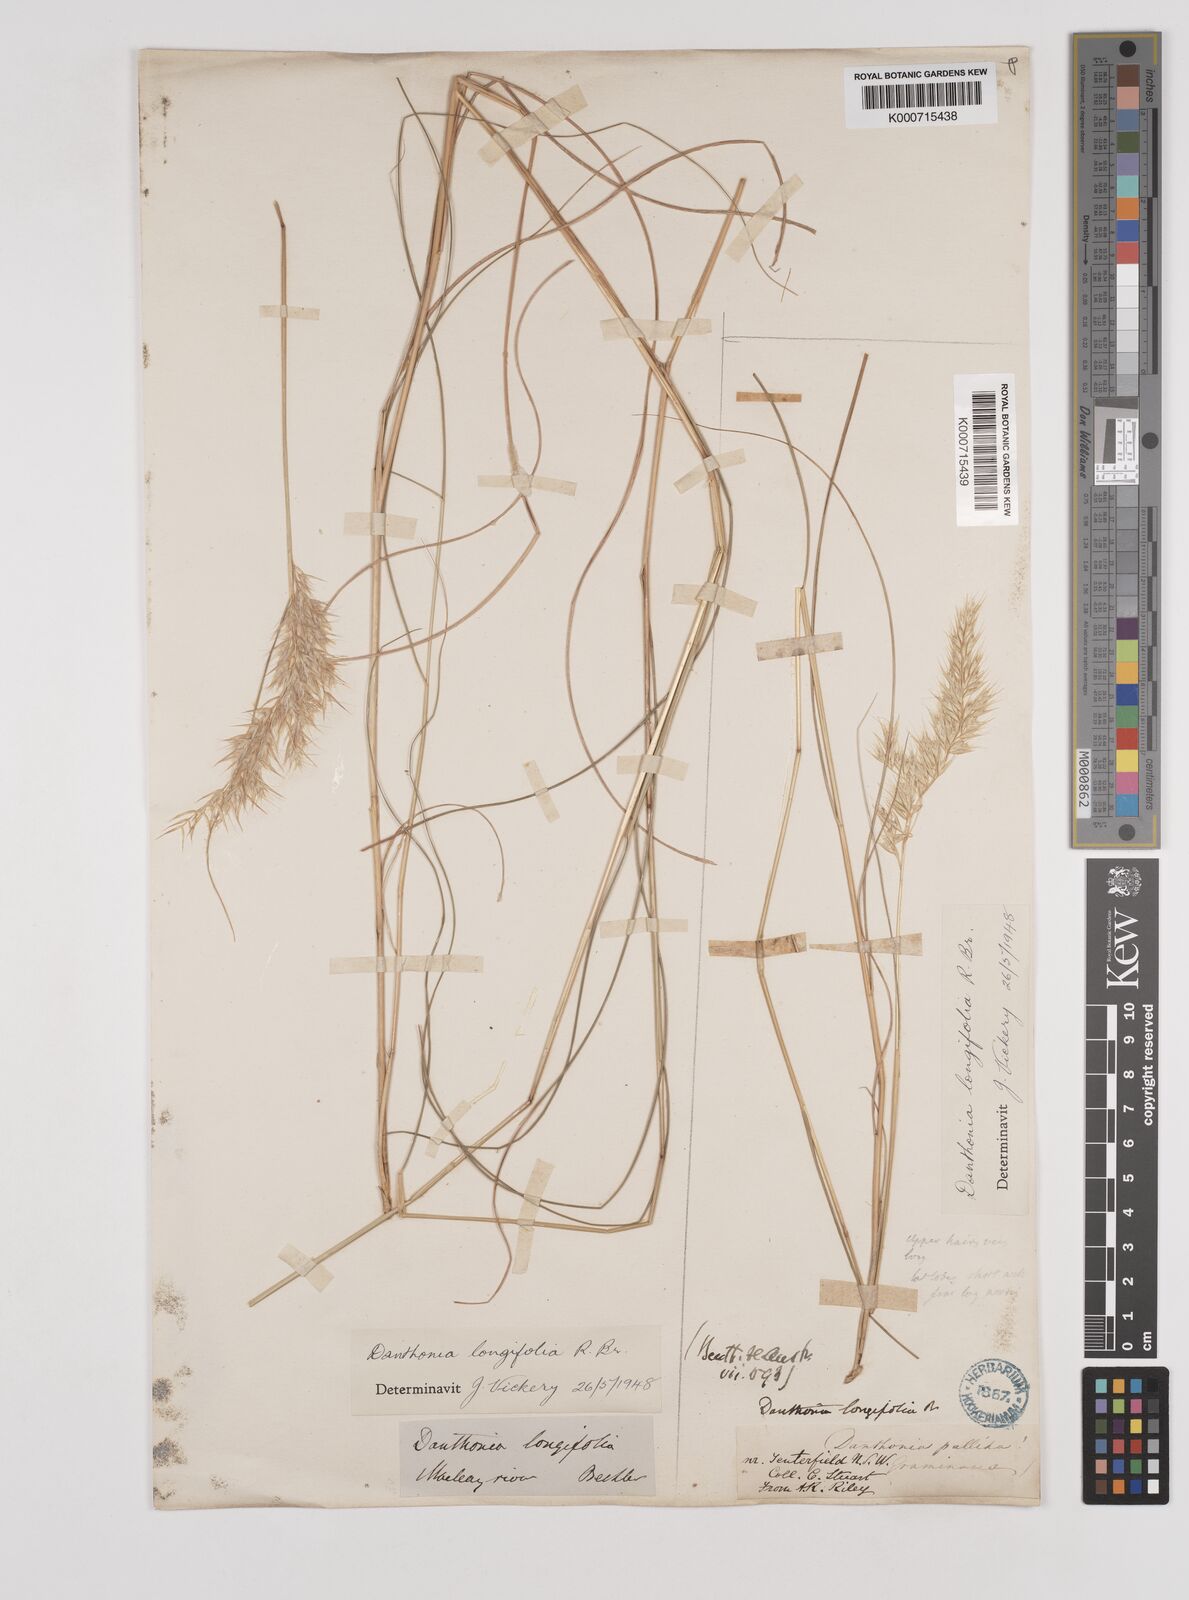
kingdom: Plantae
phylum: Tracheophyta
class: Liliopsida
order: Poales
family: Poaceae
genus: Rytidosperma
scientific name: Rytidosperma longifolium
